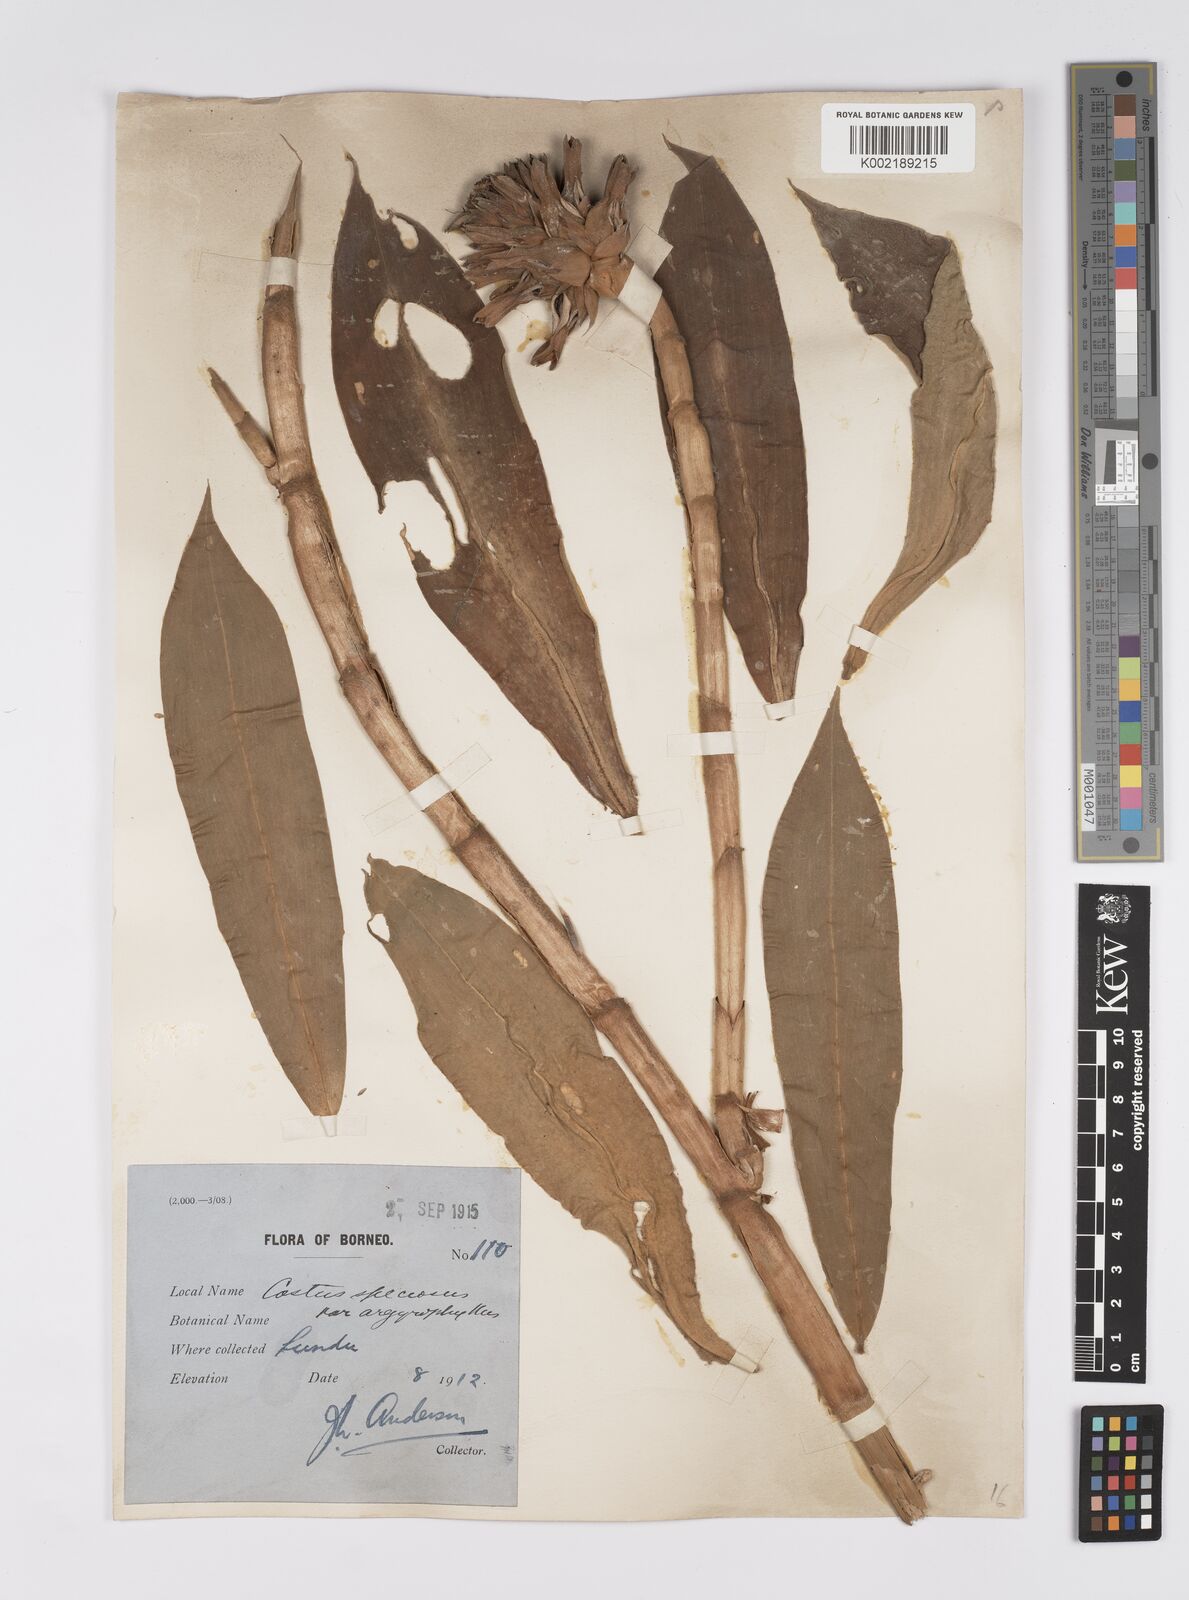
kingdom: Plantae
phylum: Tracheophyta
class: Liliopsida
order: Zingiberales
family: Costaceae
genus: Hellenia
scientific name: Hellenia speciosa
